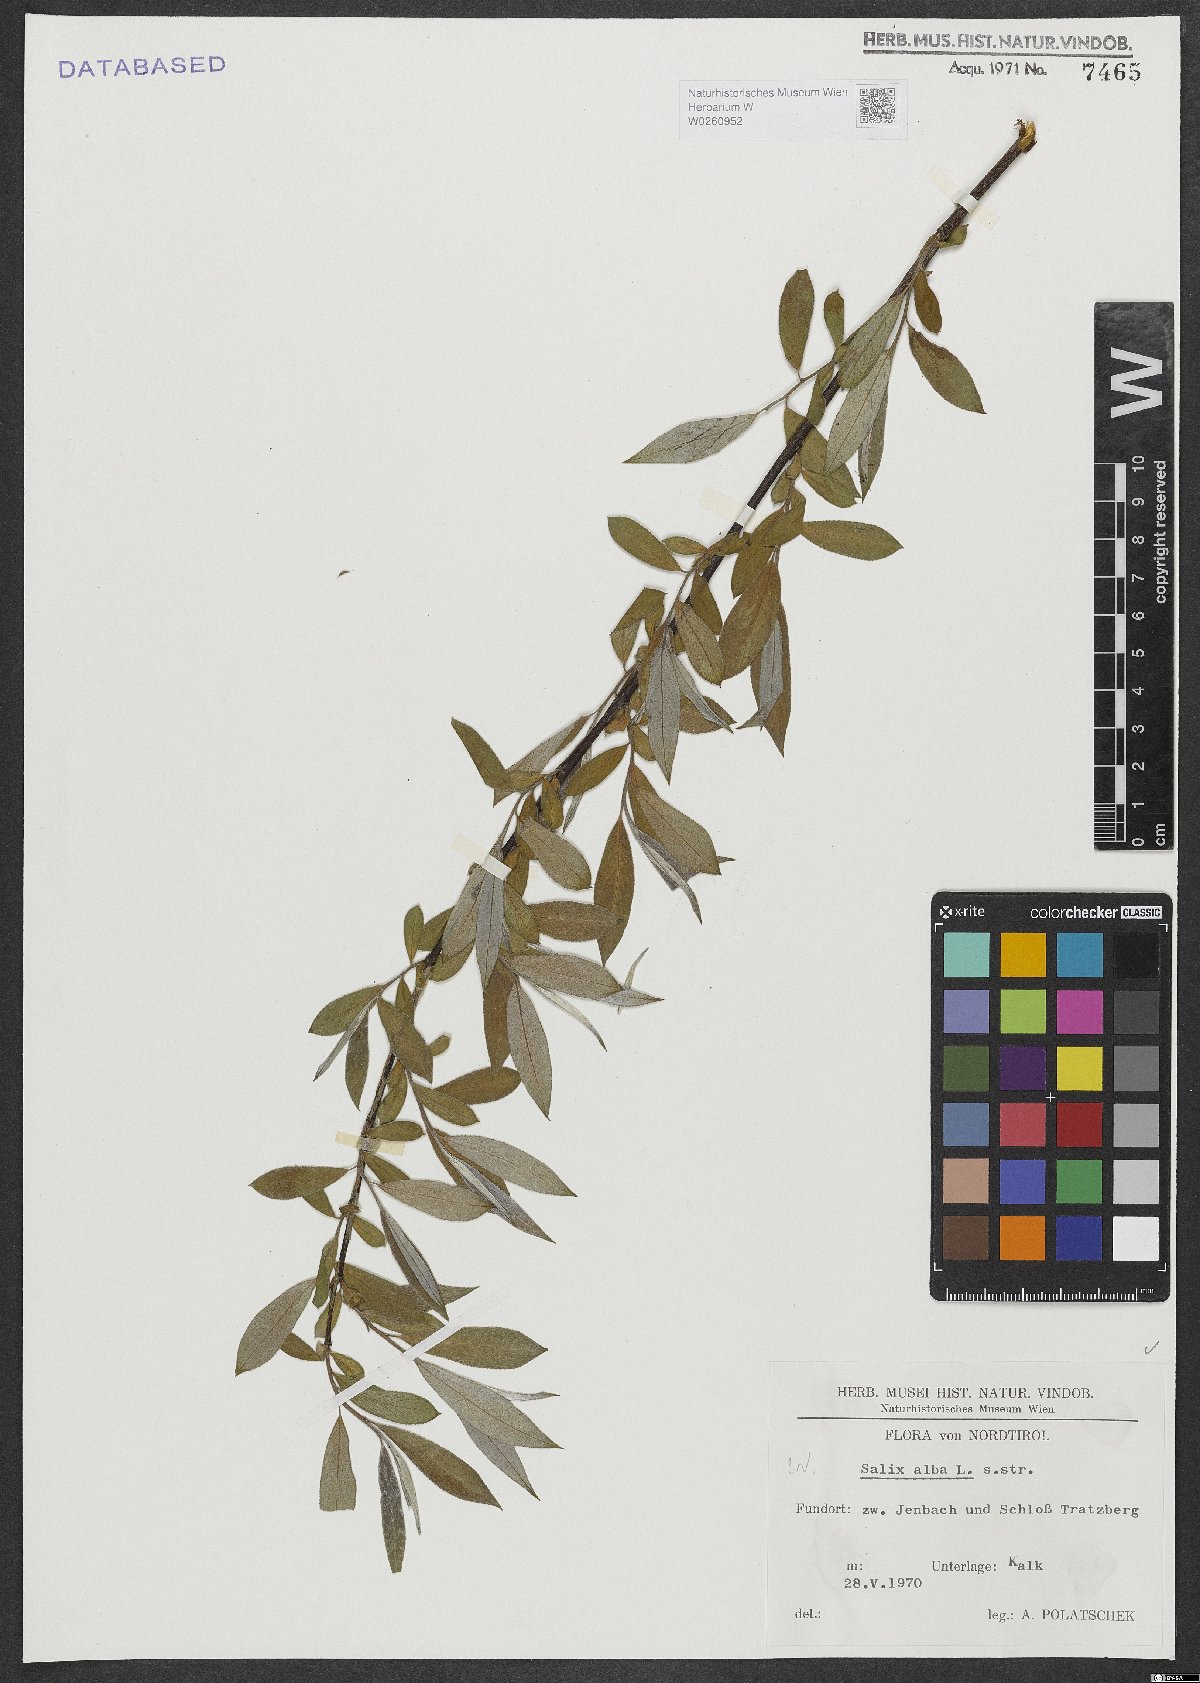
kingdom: Plantae
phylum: Tracheophyta
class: Magnoliopsida
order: Malpighiales
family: Salicaceae
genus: Salix
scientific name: Salix alba
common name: White willow
